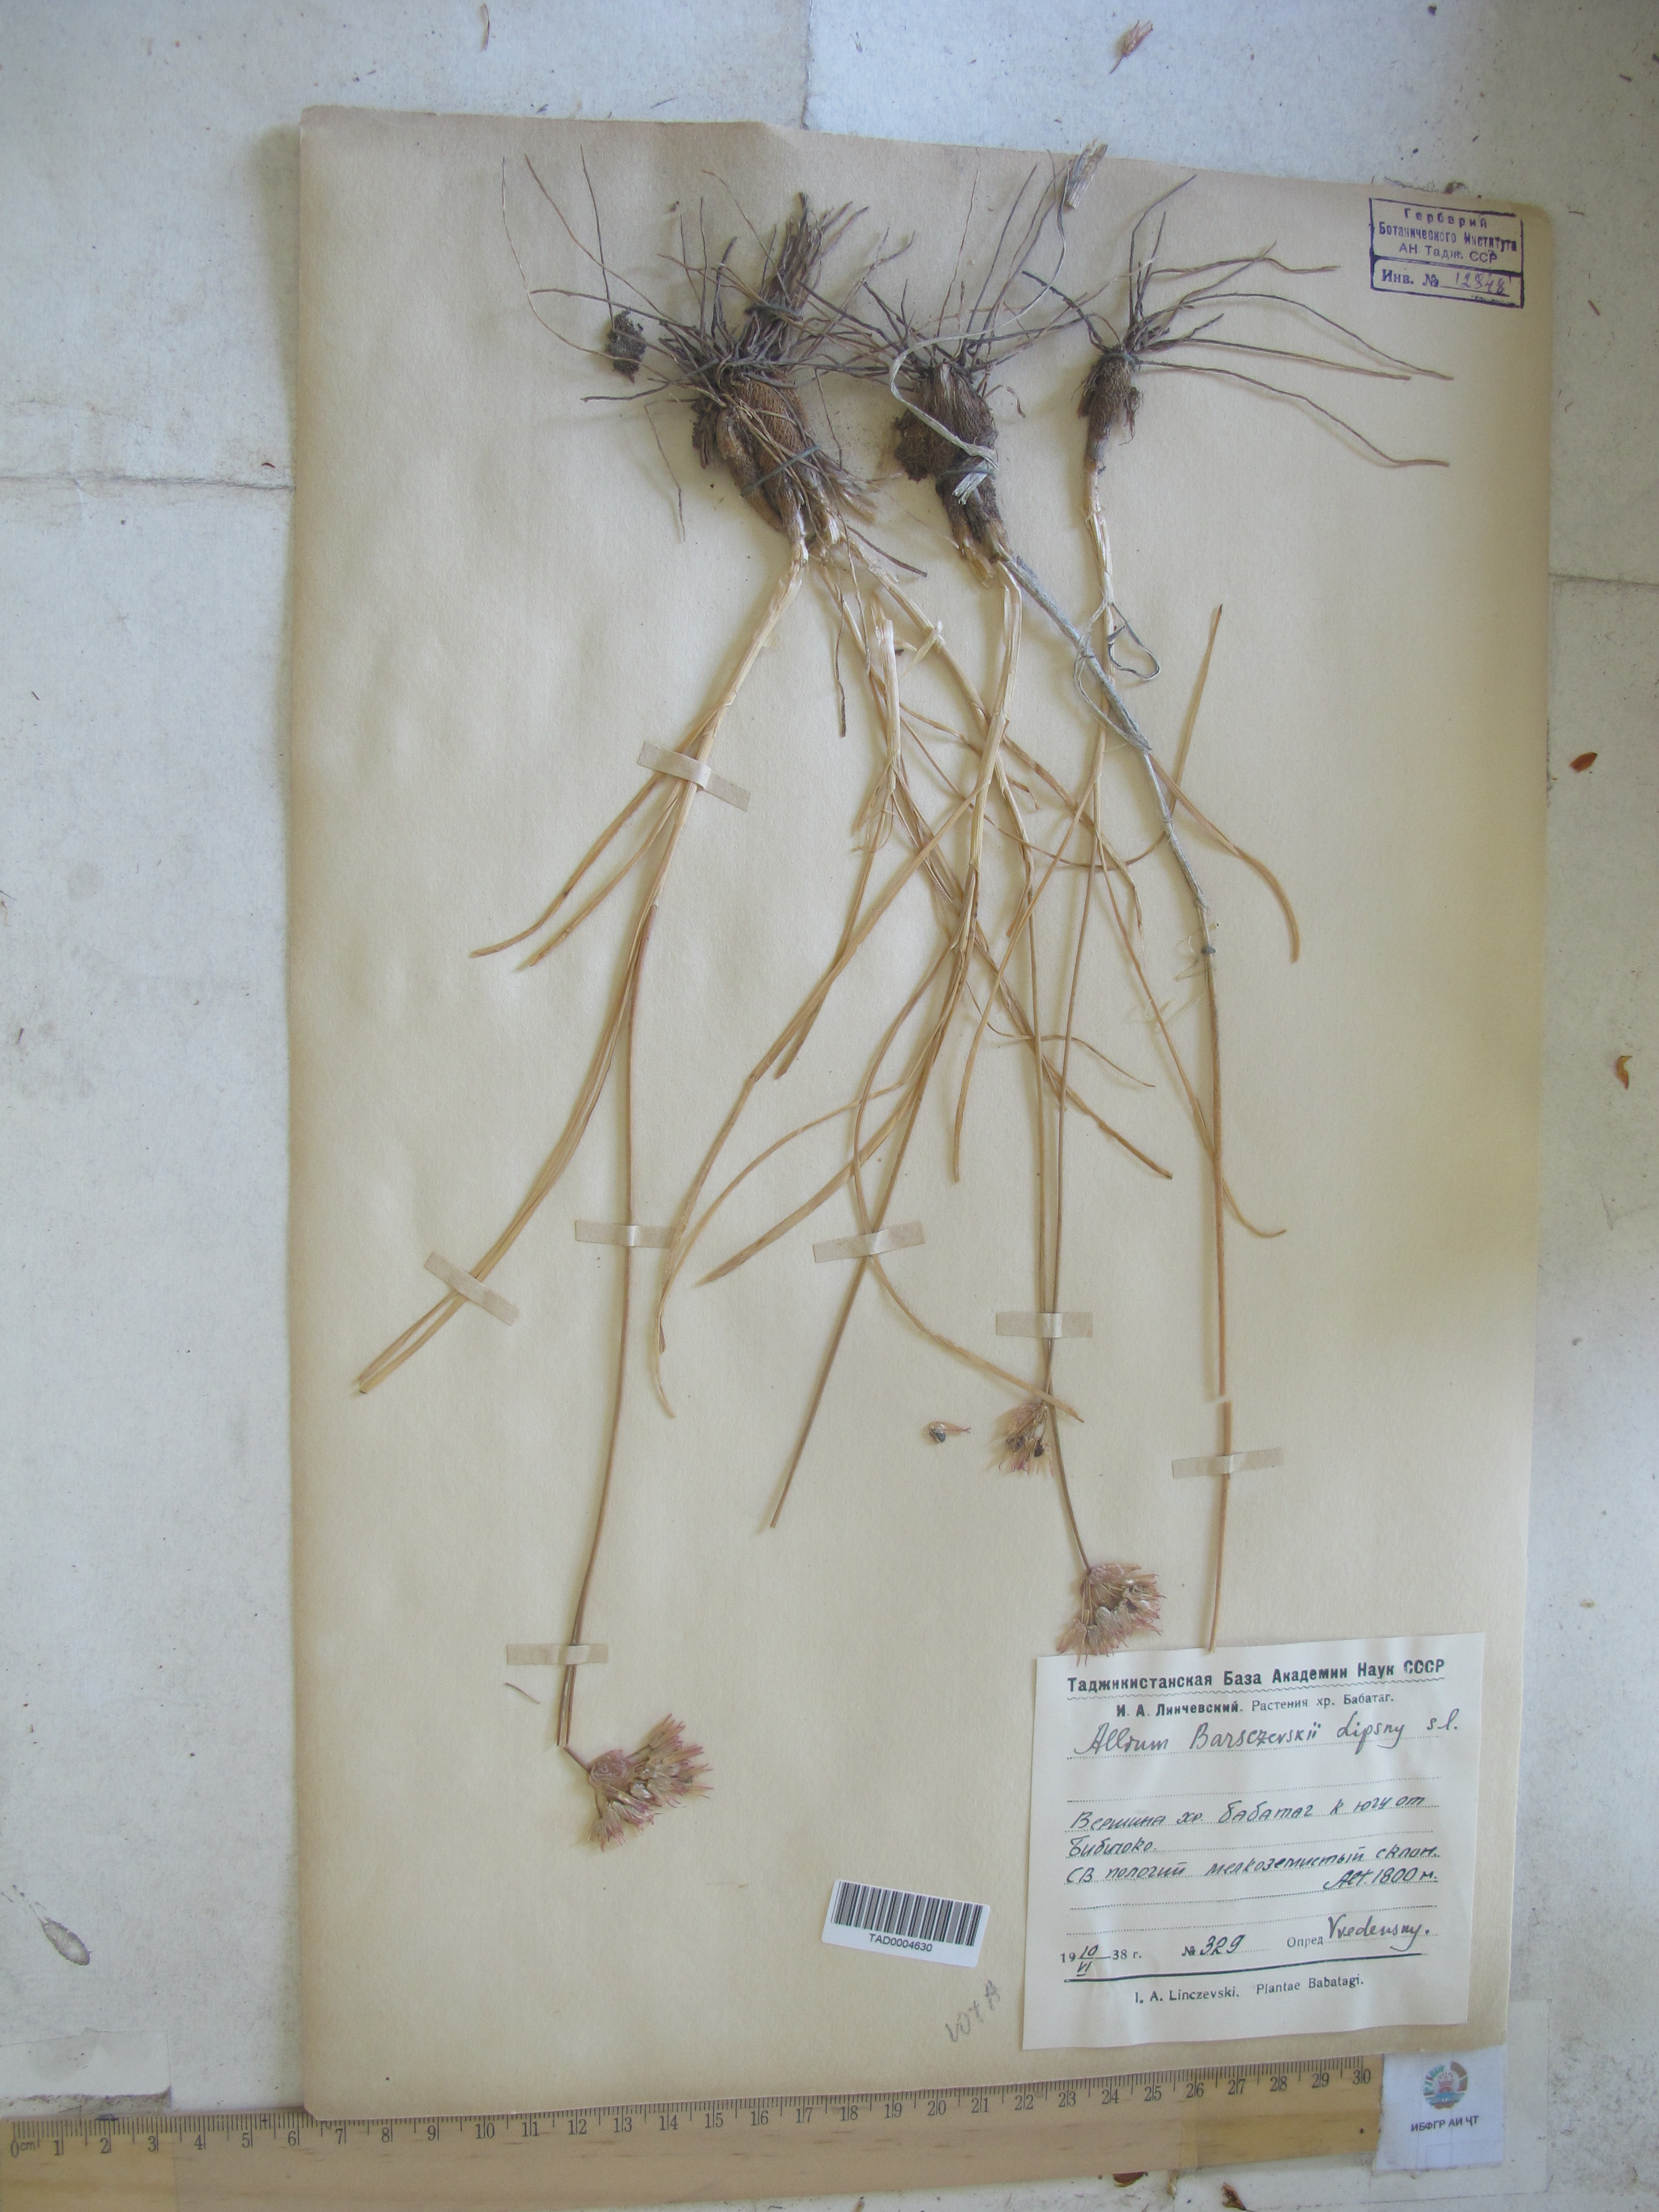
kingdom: Plantae
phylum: Tracheophyta
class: Liliopsida
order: Asparagales
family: Amaryllidaceae
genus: Allium
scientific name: Allium barsczewskii
